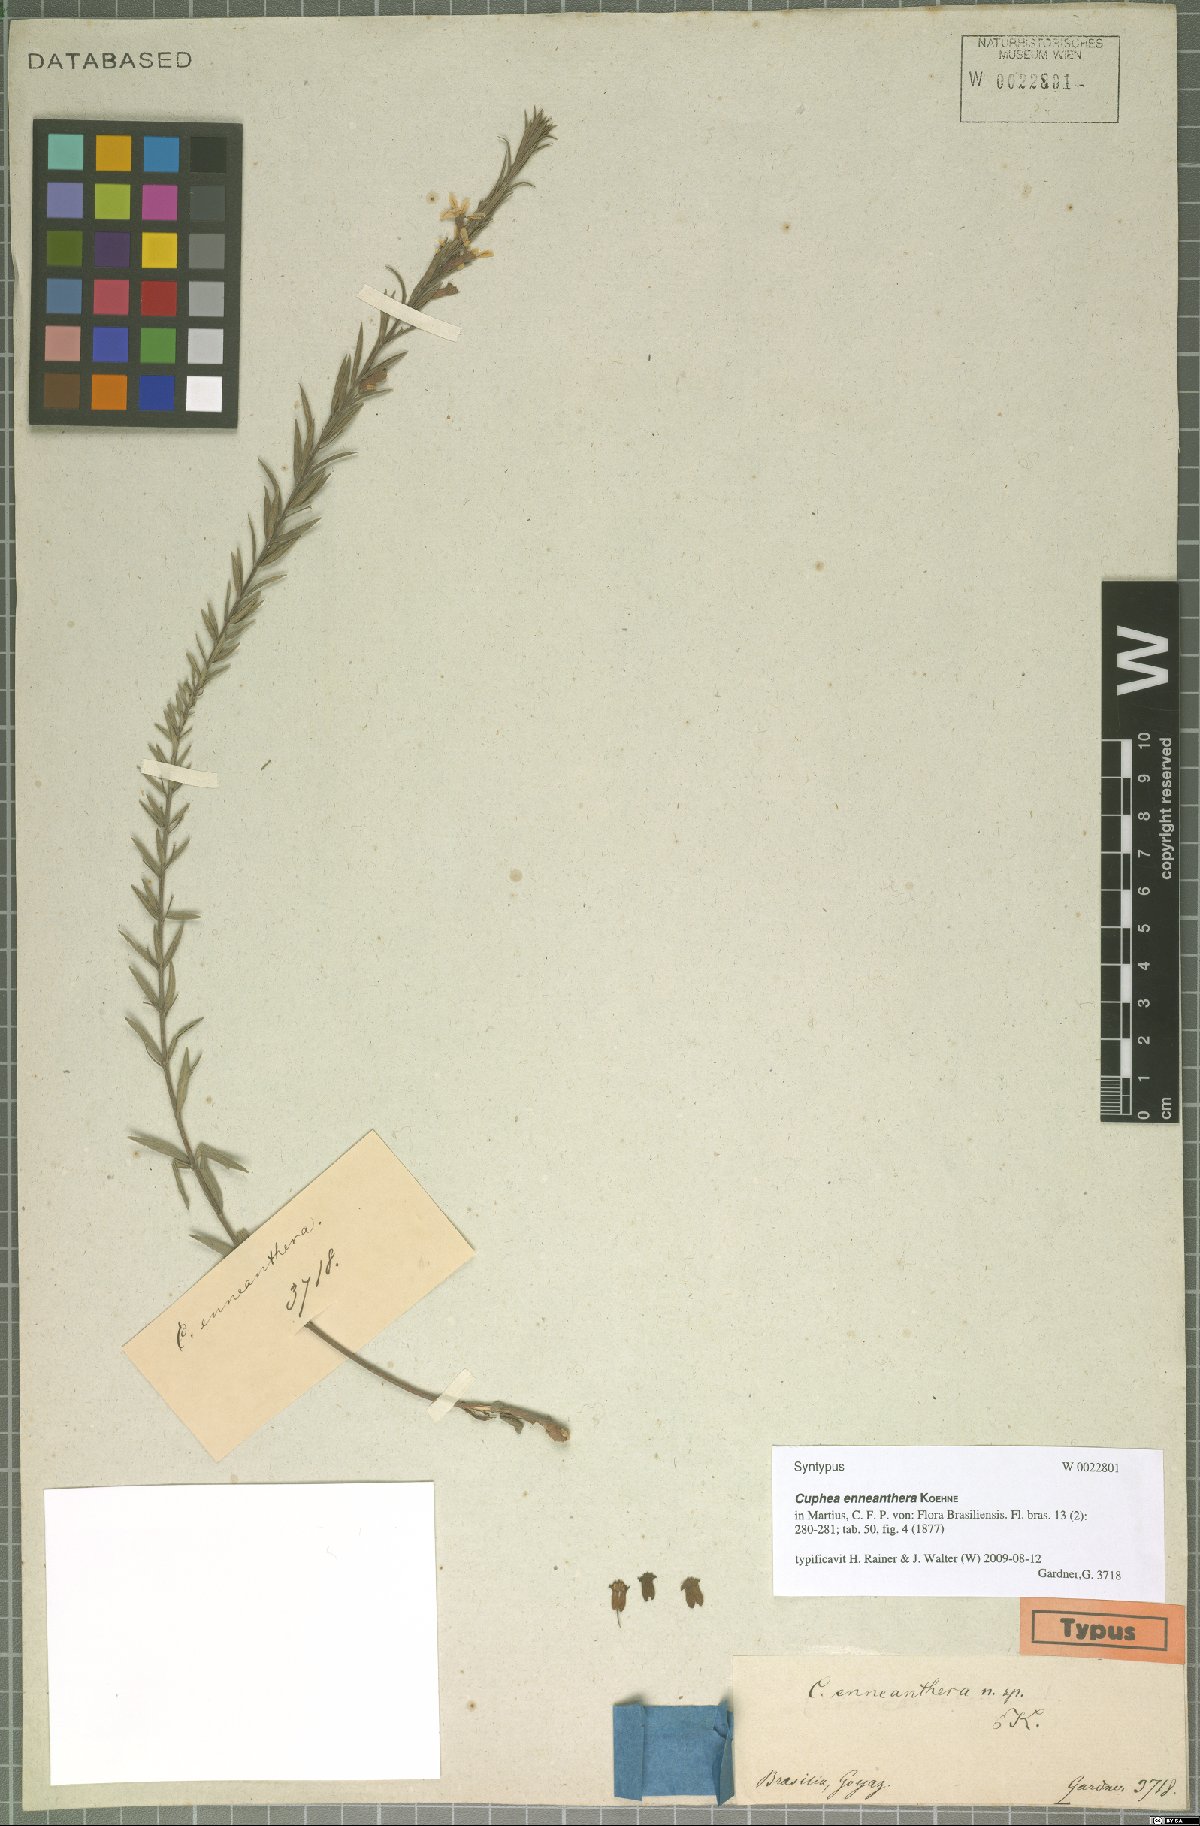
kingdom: Plantae
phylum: Tracheophyta
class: Magnoliopsida
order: Myrtales
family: Lythraceae
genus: Cuphea
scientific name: Cuphea retrorsicapilla
